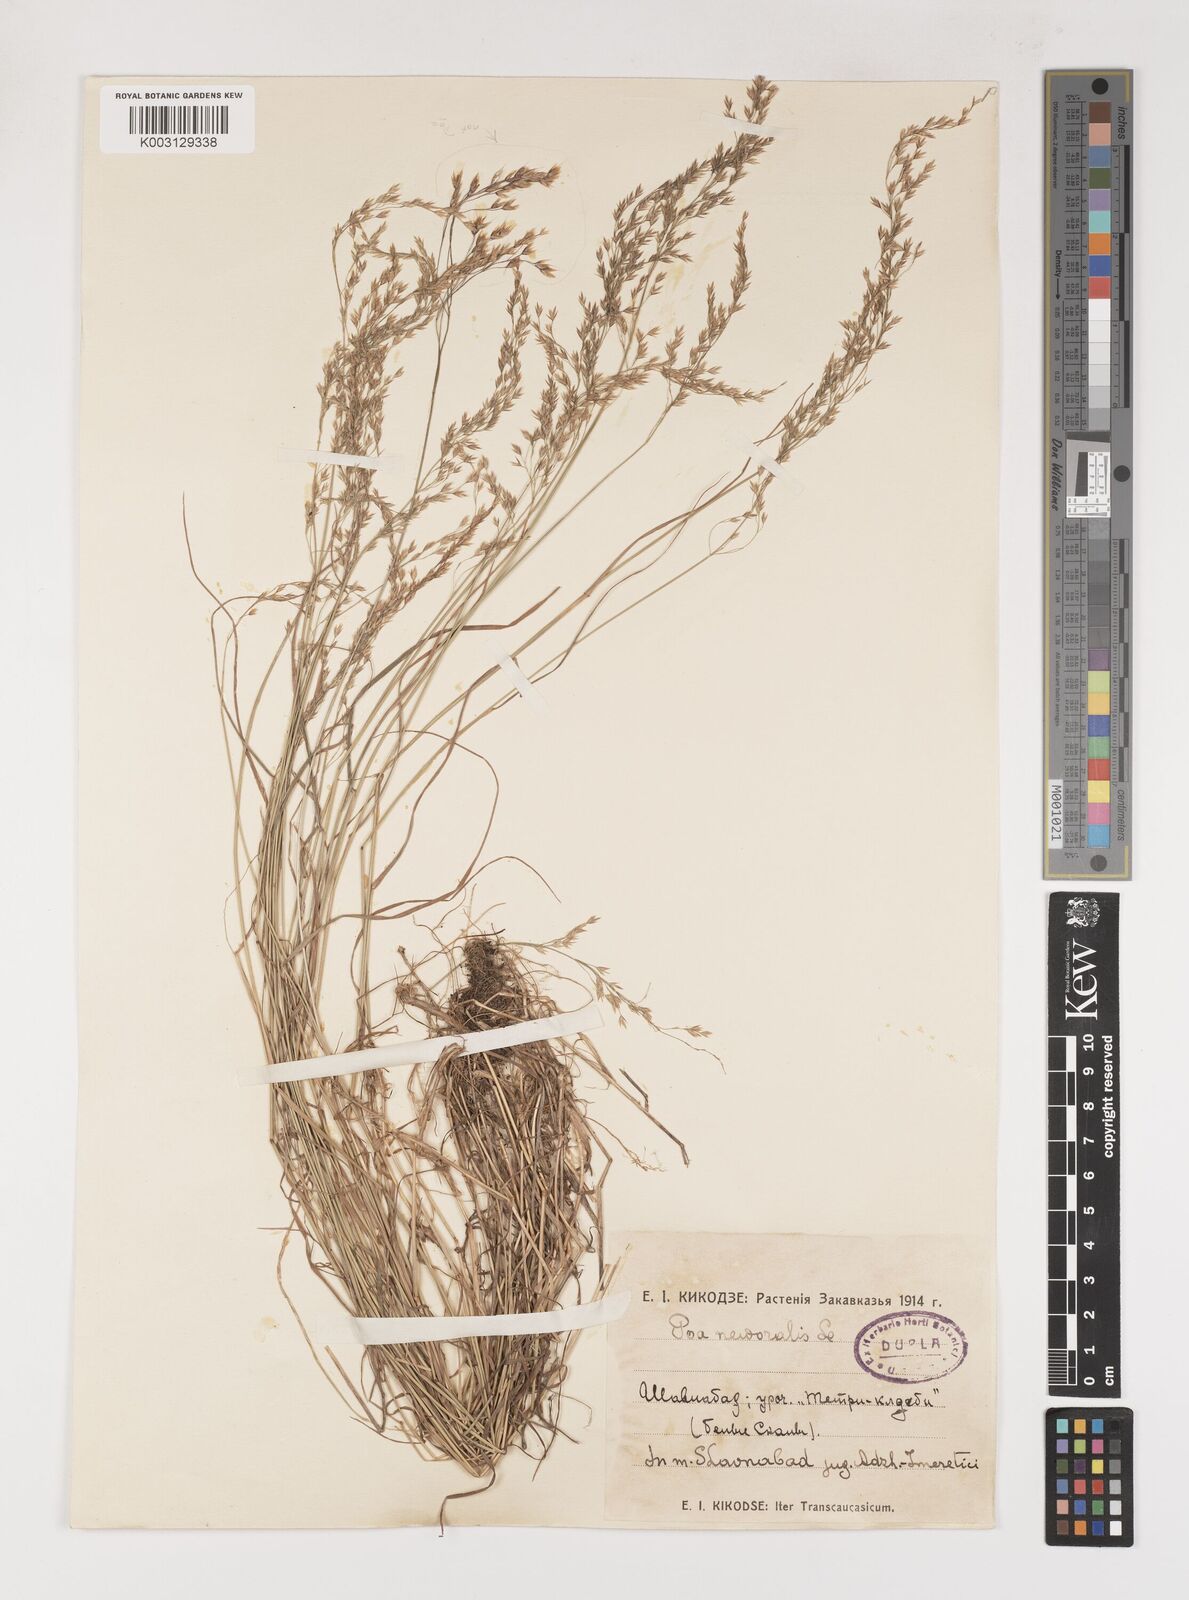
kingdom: Plantae
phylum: Tracheophyta
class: Liliopsida
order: Poales
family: Poaceae
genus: Poa
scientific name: Poa nemoralis
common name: Wood bluegrass
